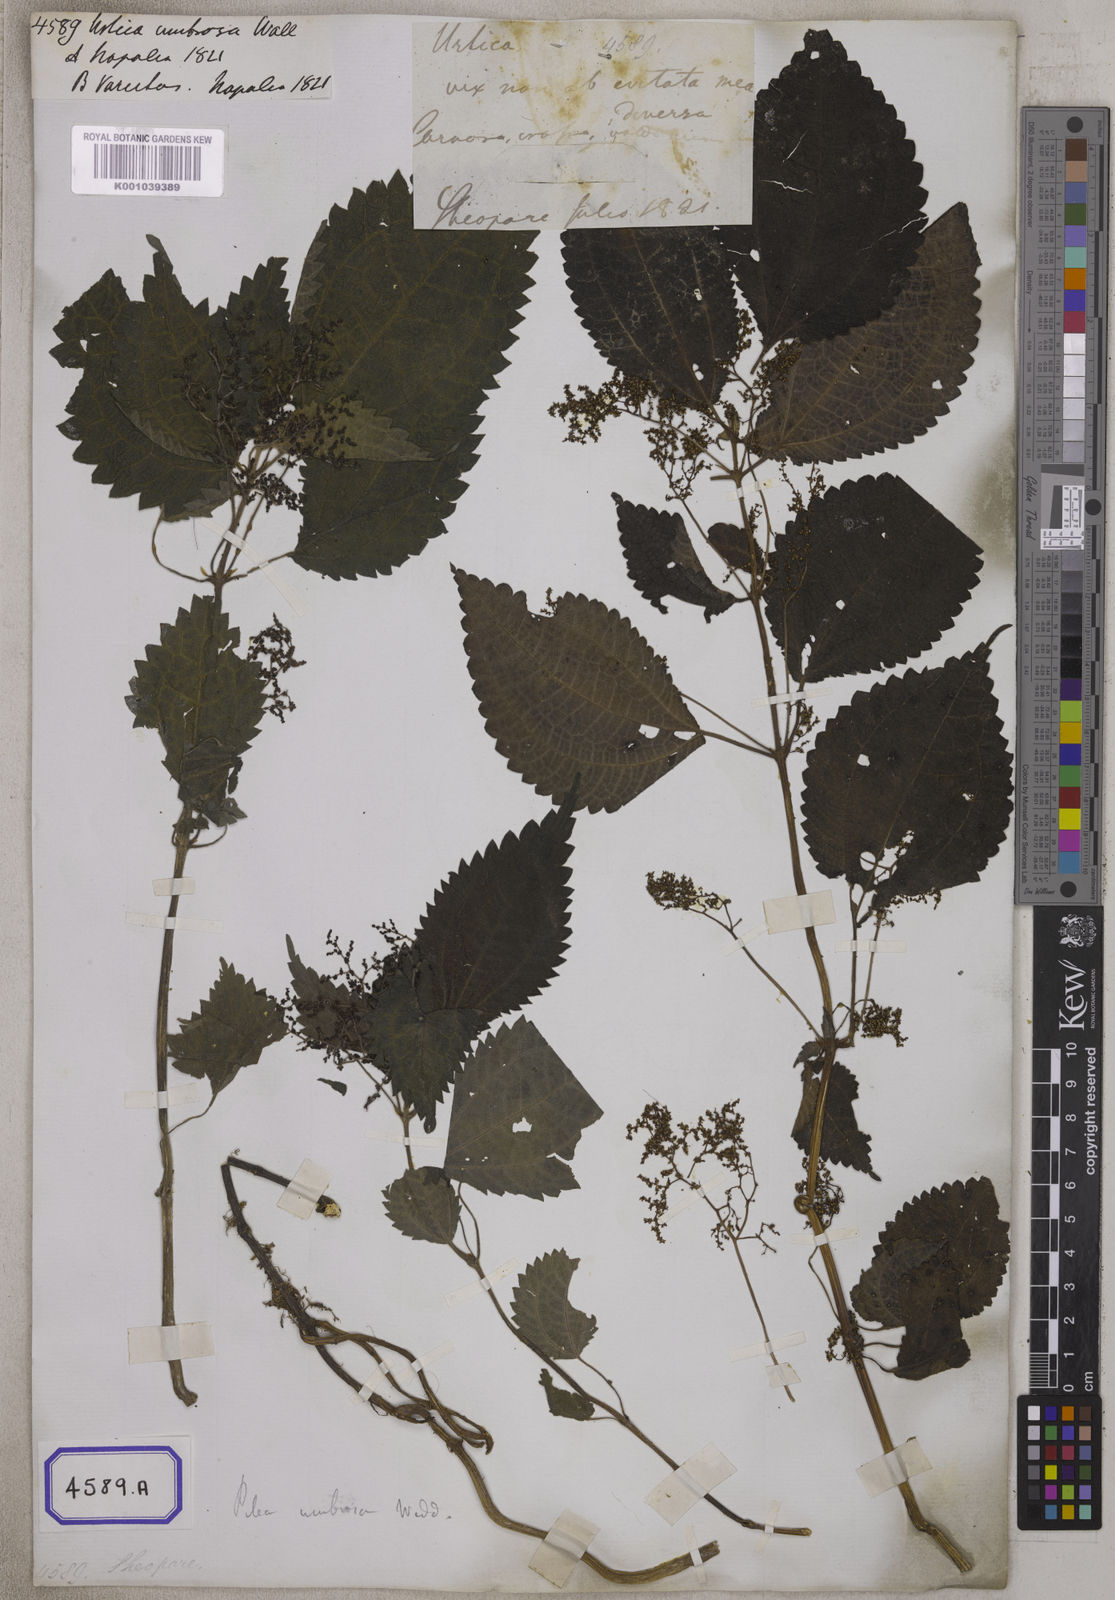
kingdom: Plantae
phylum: Tracheophyta
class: Magnoliopsida
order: Rosales
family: Urticaceae
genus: Pilea
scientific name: Pilea umbrosa
